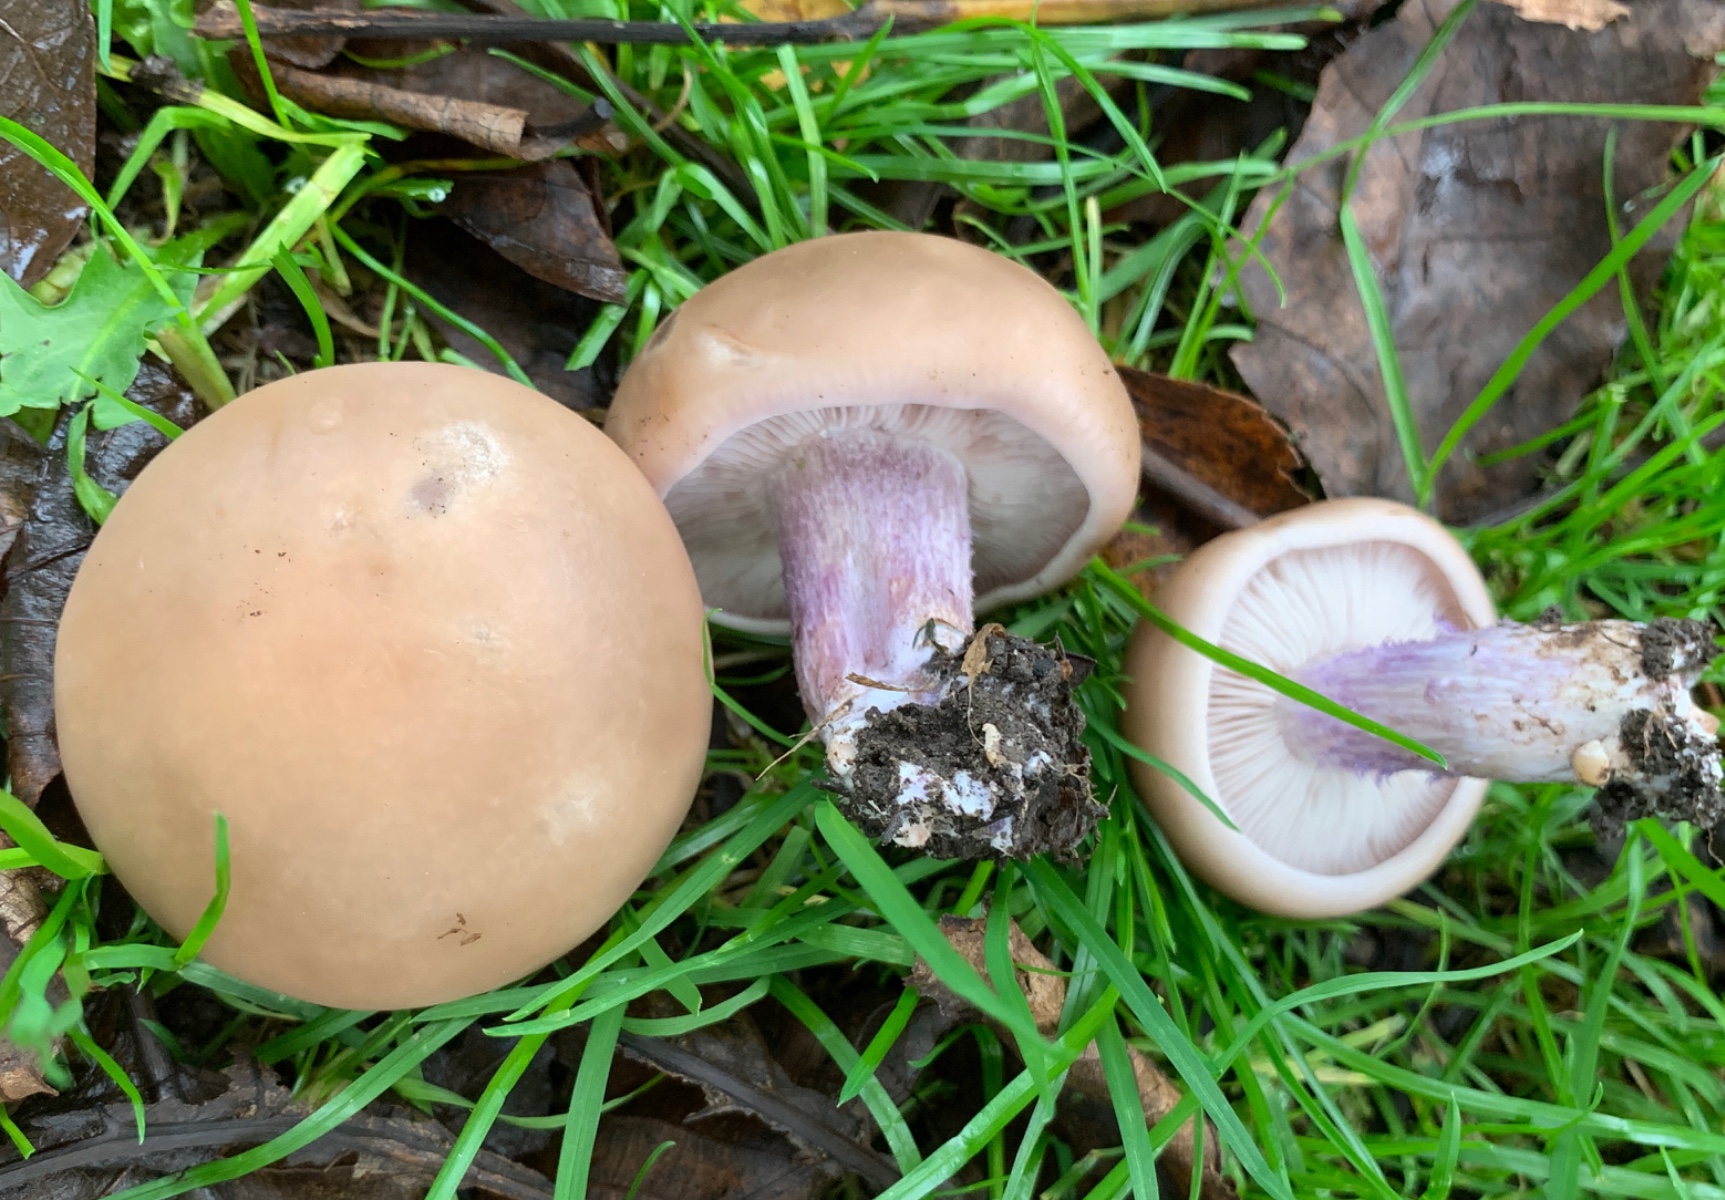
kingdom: Fungi
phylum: Basidiomycota
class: Agaricomycetes
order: Agaricales
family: Tricholomataceae
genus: Lepista
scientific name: Lepista personata
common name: bleg hekseringshat
